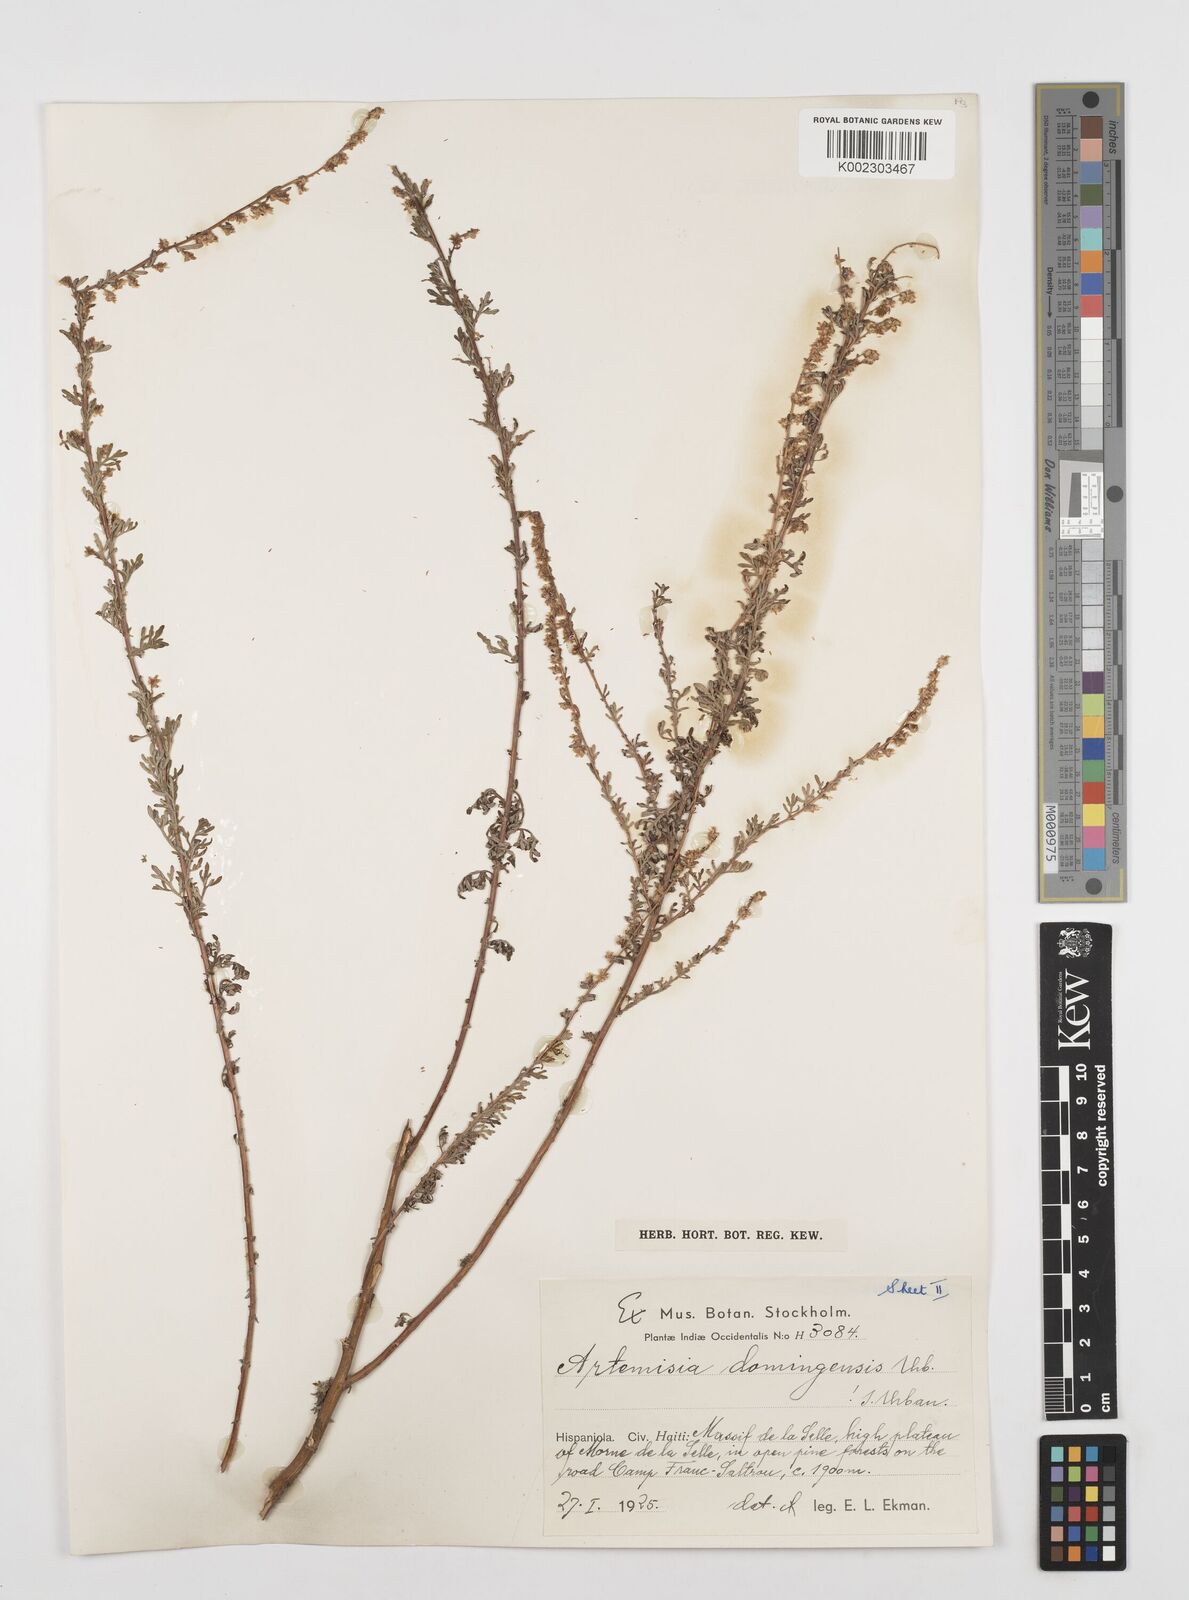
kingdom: Plantae
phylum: Tracheophyta
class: Magnoliopsida
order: Asterales
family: Asteraceae
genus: Artemisia
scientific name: Artemisia domingensis
